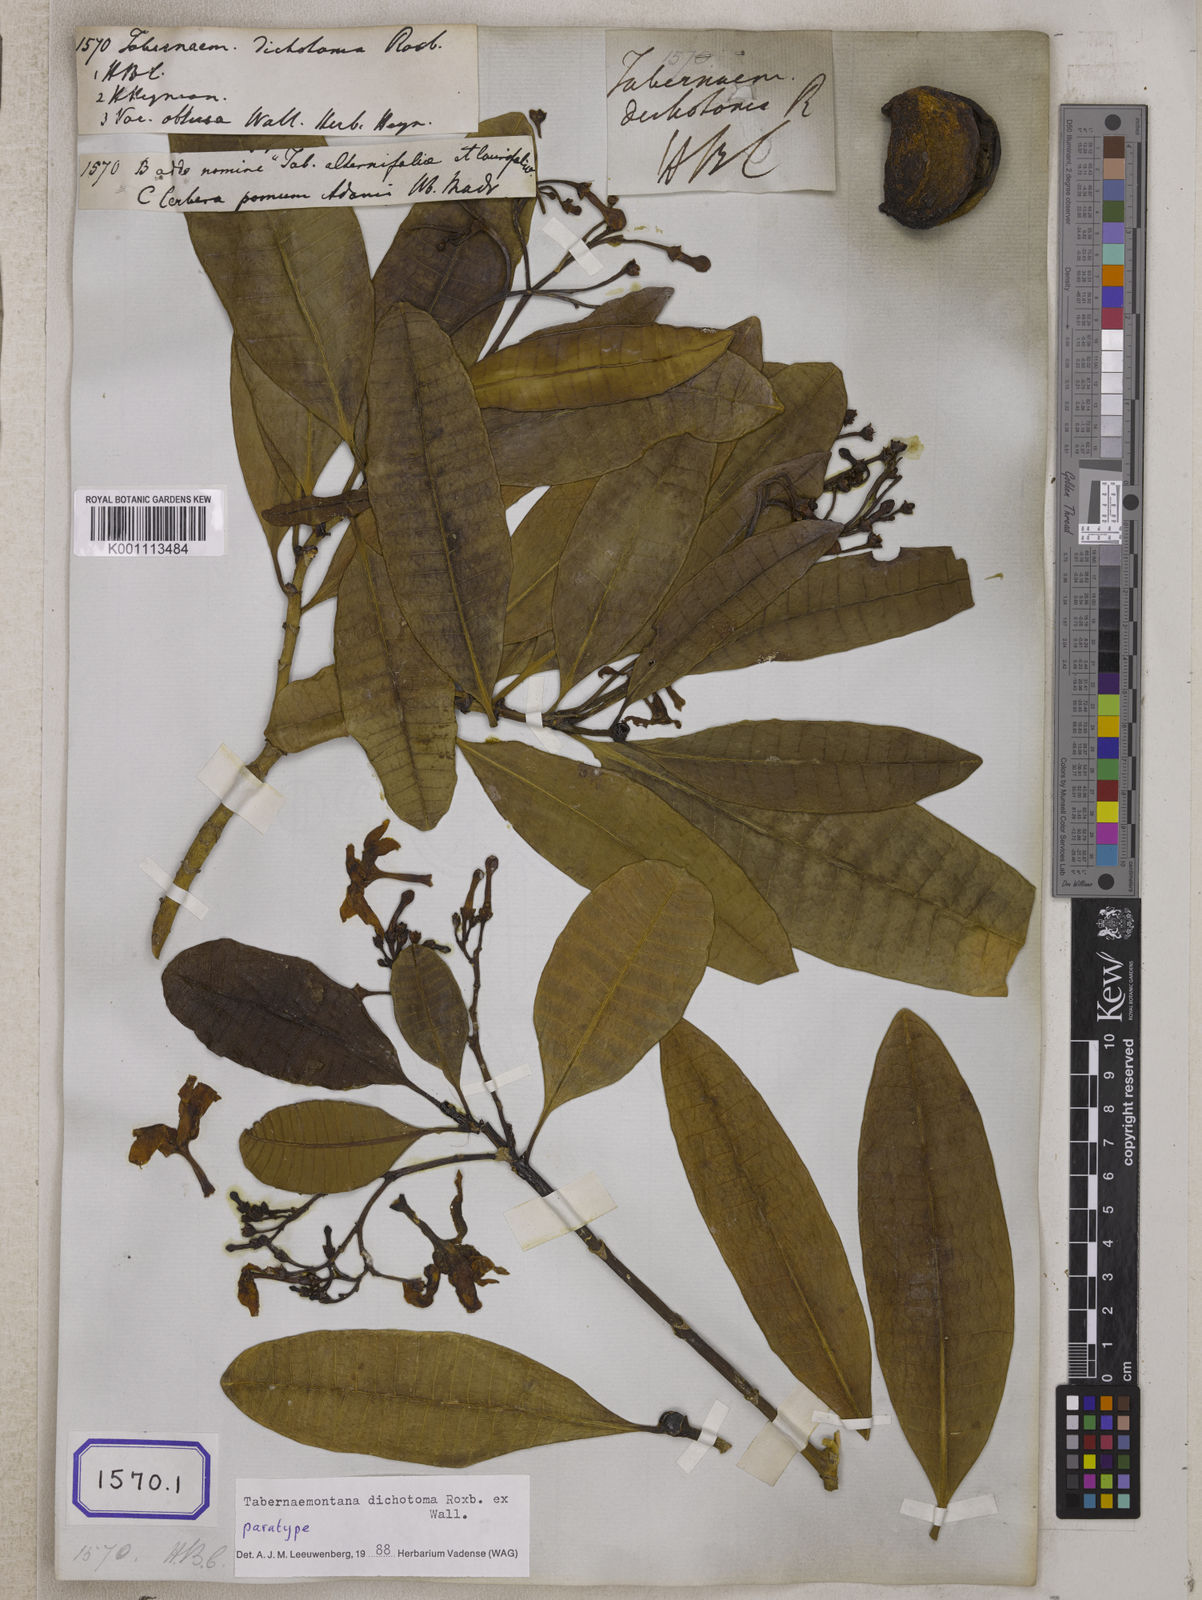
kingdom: Plantae
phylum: Tracheophyta
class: Magnoliopsida
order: Gentianales
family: Apocynaceae
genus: Tabernaemontana
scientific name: Tabernaemontana
